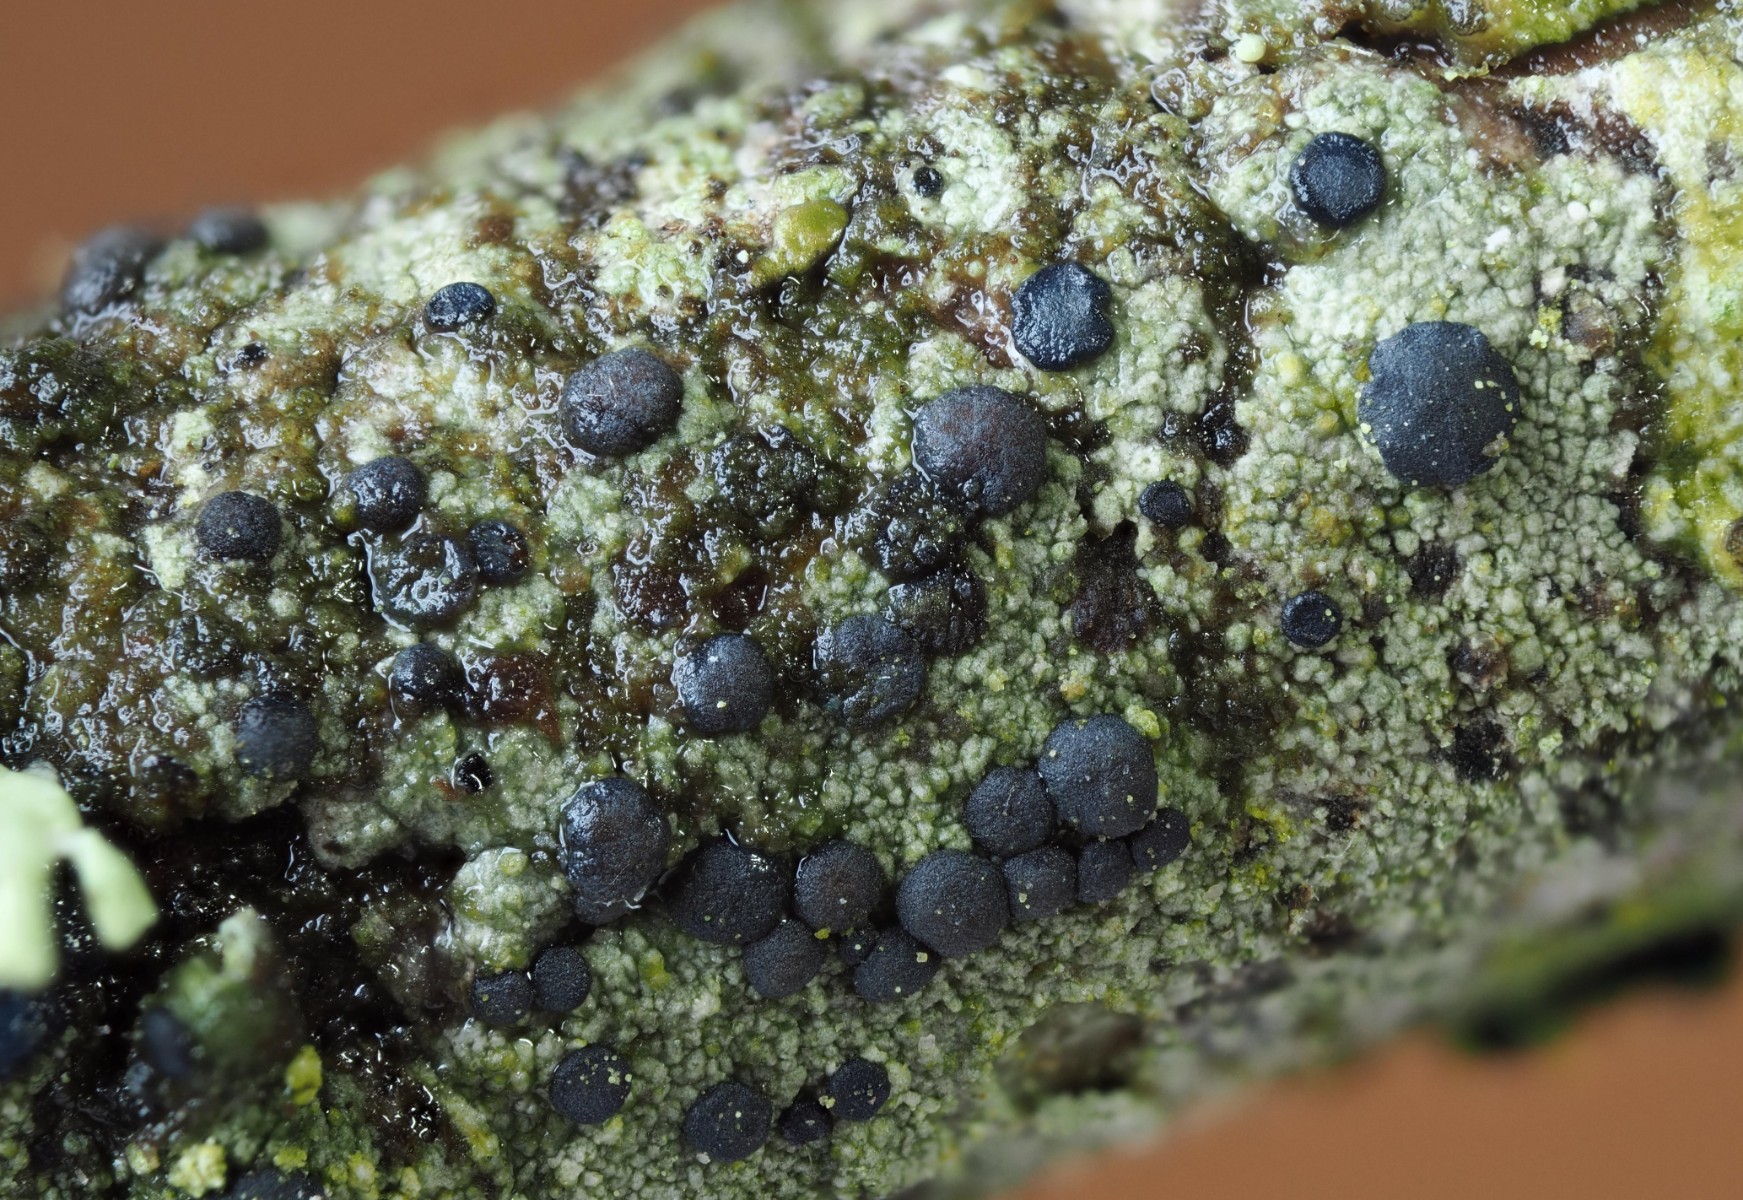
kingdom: Fungi
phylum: Ascomycota
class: Lecanoromycetes
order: Lecanorales
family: Lecanoraceae
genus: Lecidella
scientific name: Lecidella elaeochroma
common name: grågrøn skivelav
